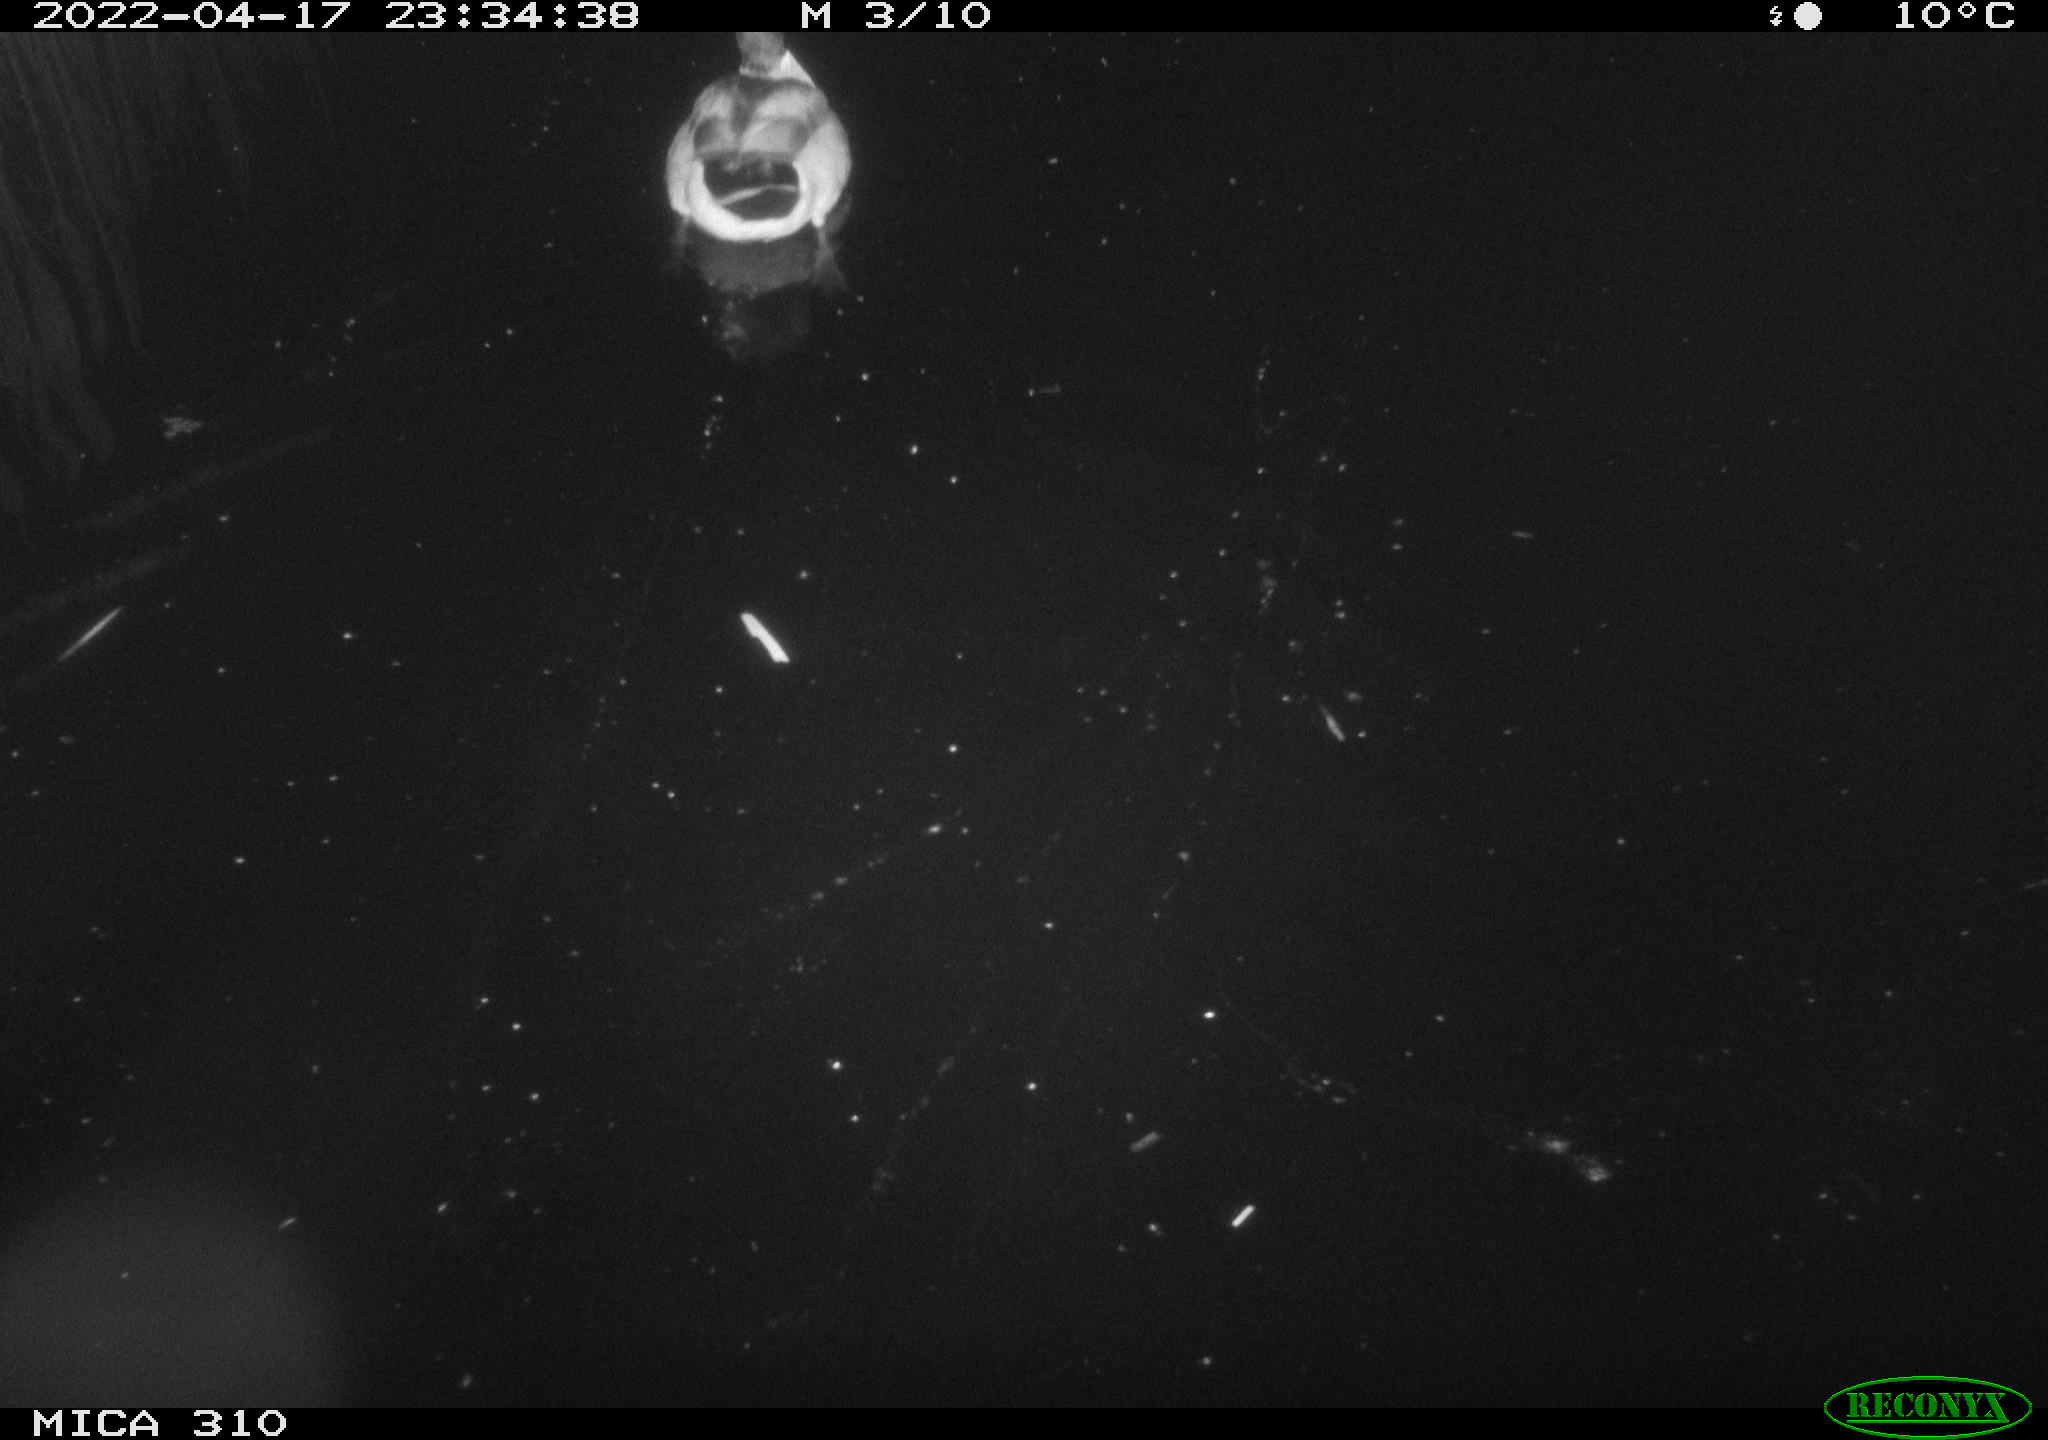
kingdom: Animalia
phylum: Chordata
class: Aves
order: Anseriformes
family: Anatidae
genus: Anas
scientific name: Anas platyrhynchos
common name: Mallard
